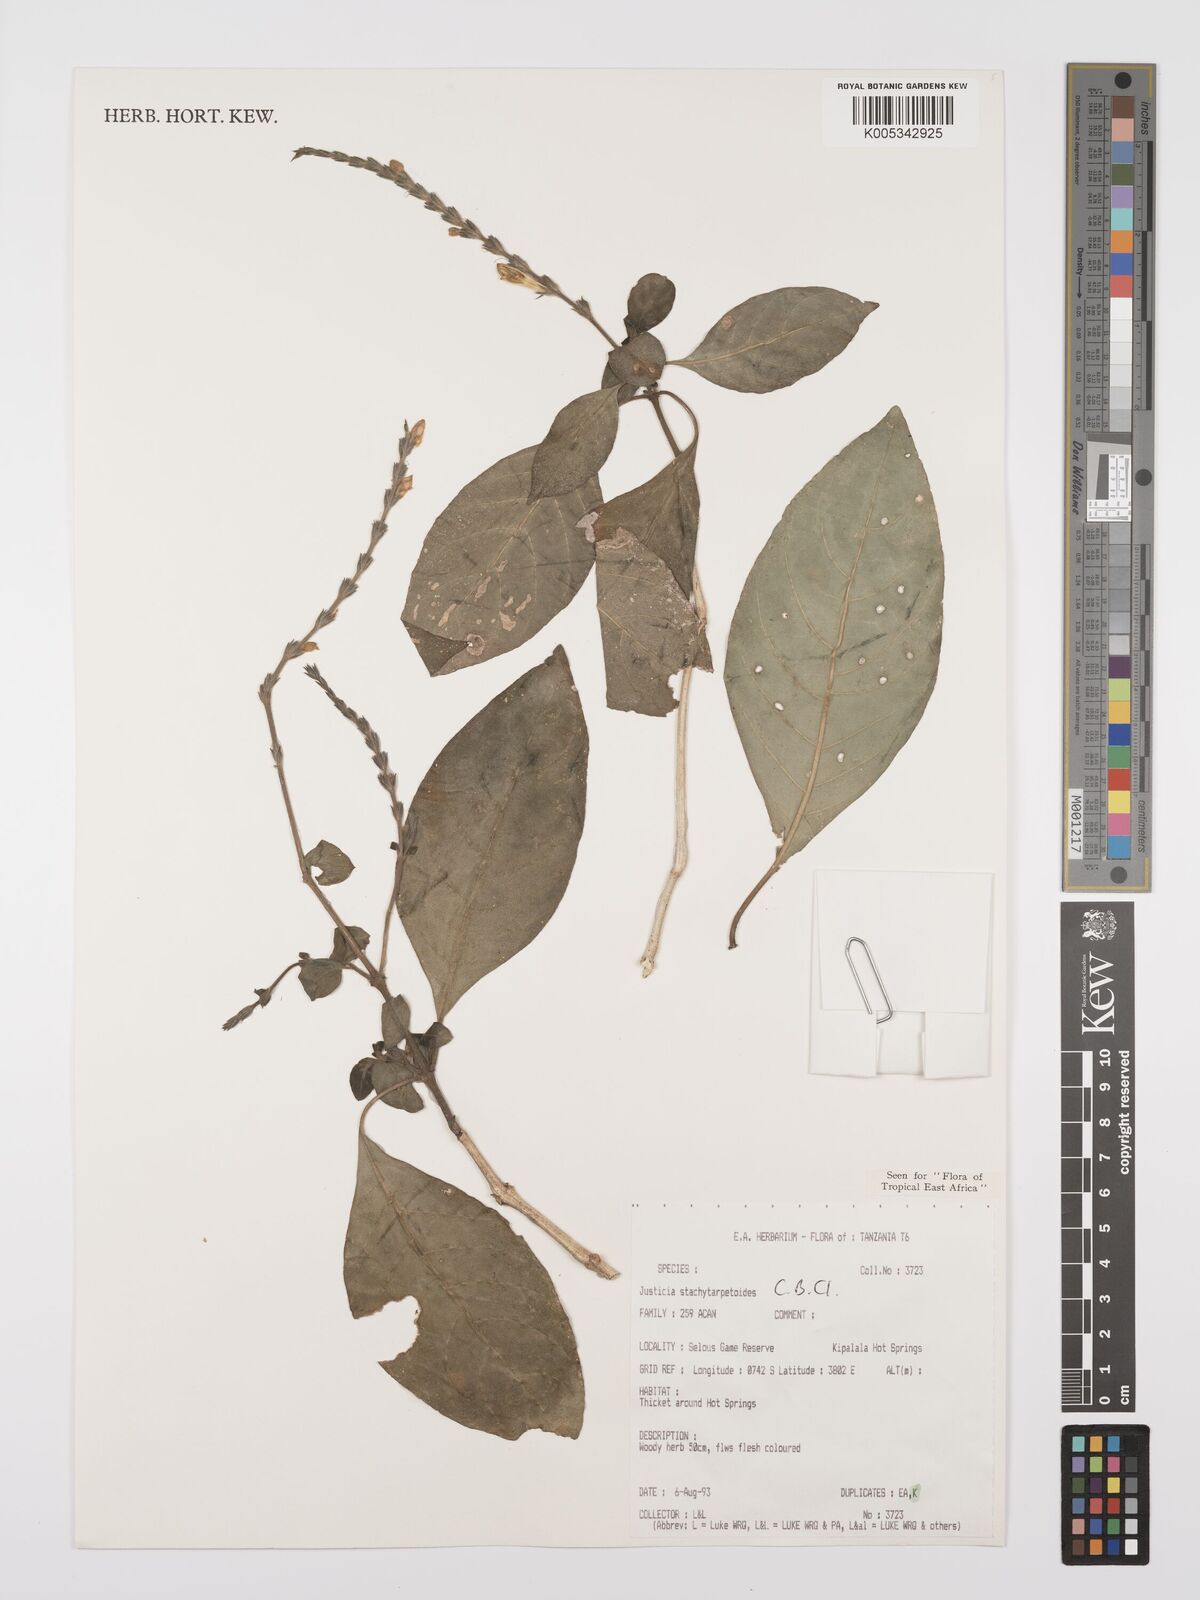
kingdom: Plantae
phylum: Tracheophyta
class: Magnoliopsida
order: Lamiales
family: Acanthaceae
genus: Justicia
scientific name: Justicia stachytarphetoides
